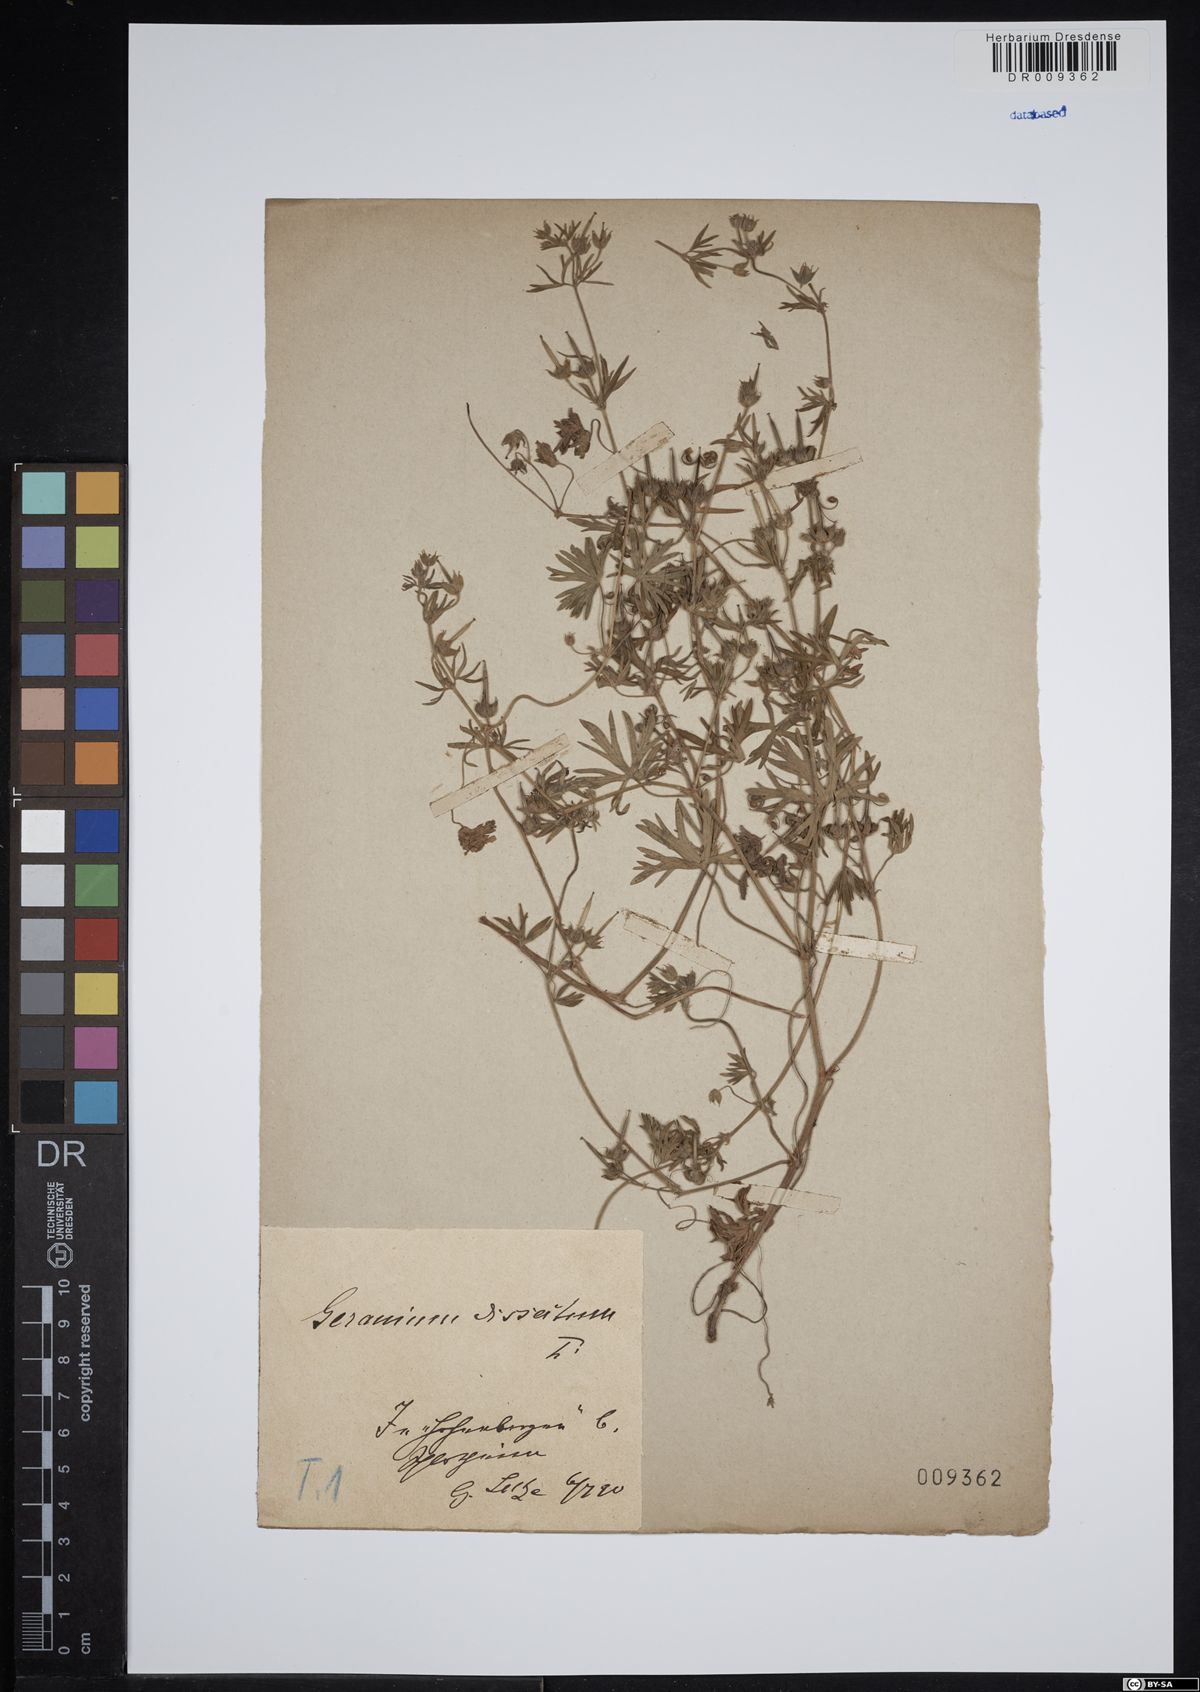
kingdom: Plantae
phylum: Tracheophyta
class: Magnoliopsida
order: Geraniales
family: Geraniaceae
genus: Geranium
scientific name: Geranium dissectum
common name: Cut-leaved crane's-bill
